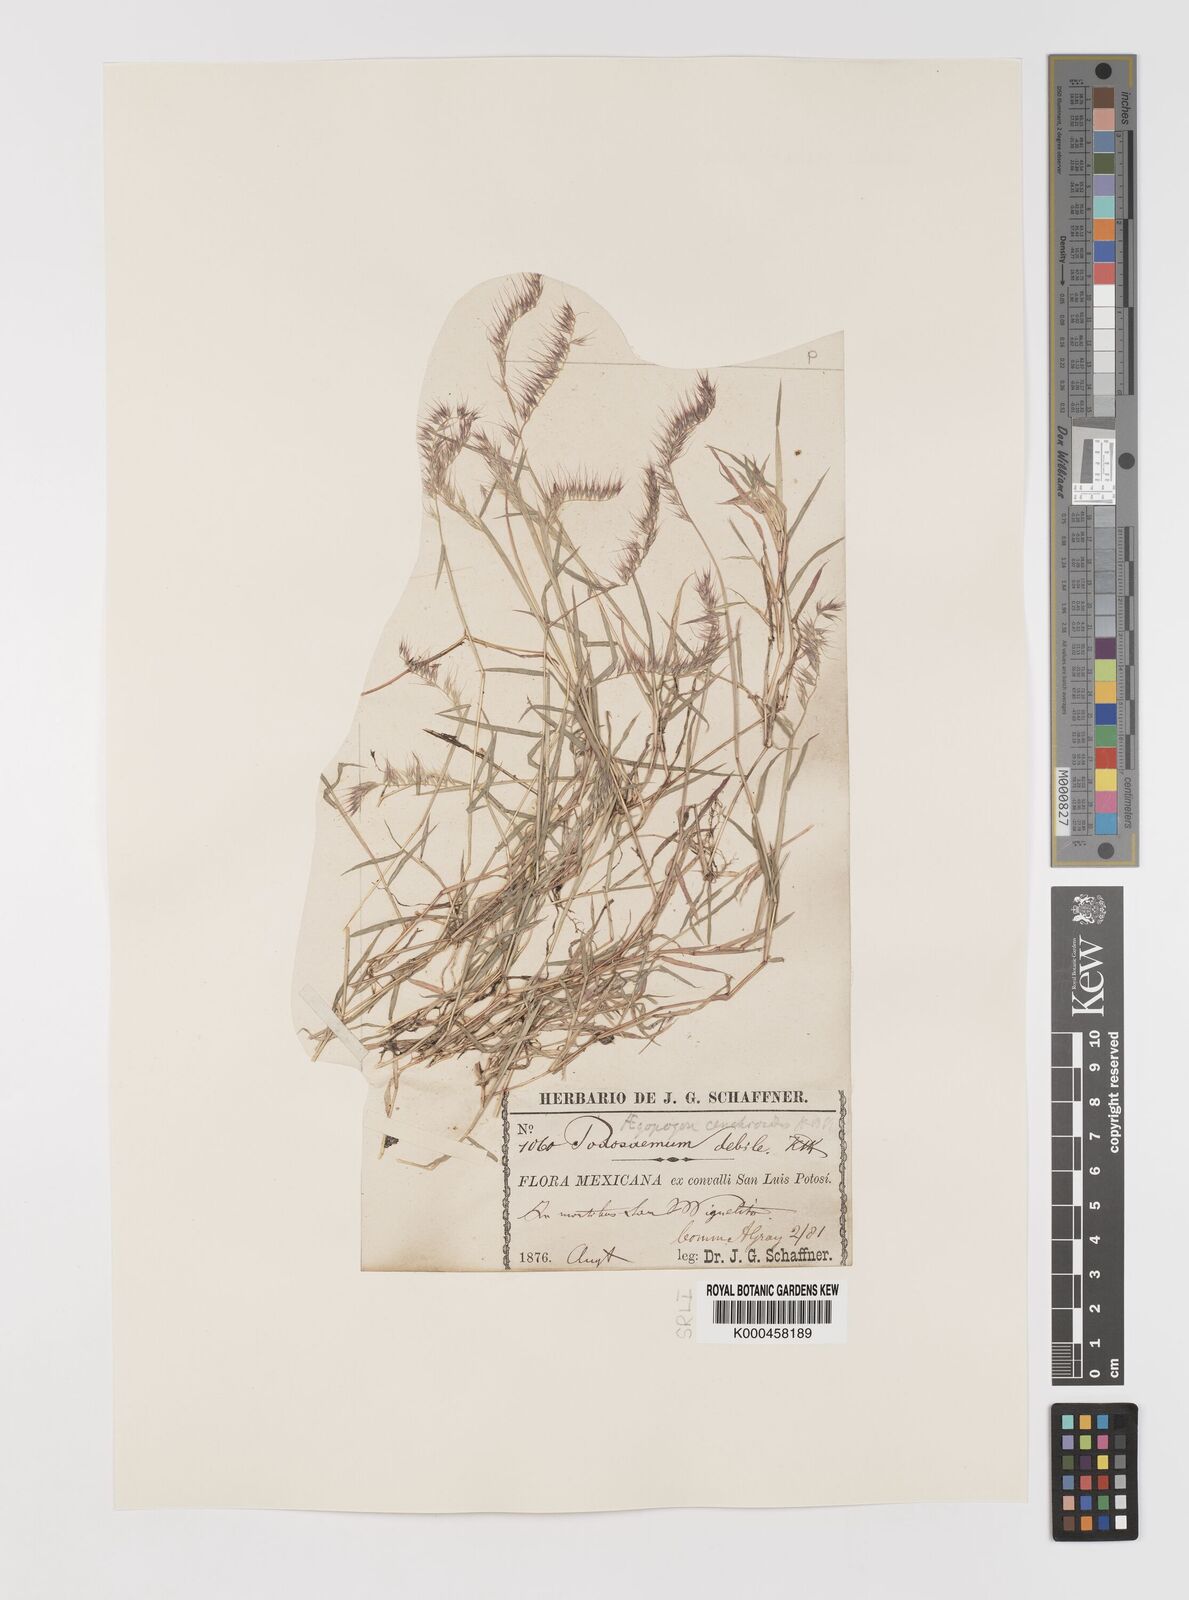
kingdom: Plantae
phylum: Tracheophyta
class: Liliopsida
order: Poales
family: Poaceae
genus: Muhlenbergia
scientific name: Muhlenbergia
